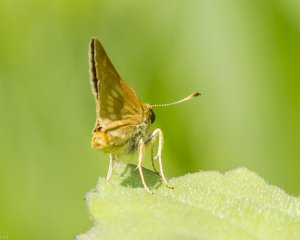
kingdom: Animalia
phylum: Arthropoda
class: Insecta
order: Lepidoptera
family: Hesperiidae
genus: Polites
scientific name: Polites
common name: Long Dash Skipper
